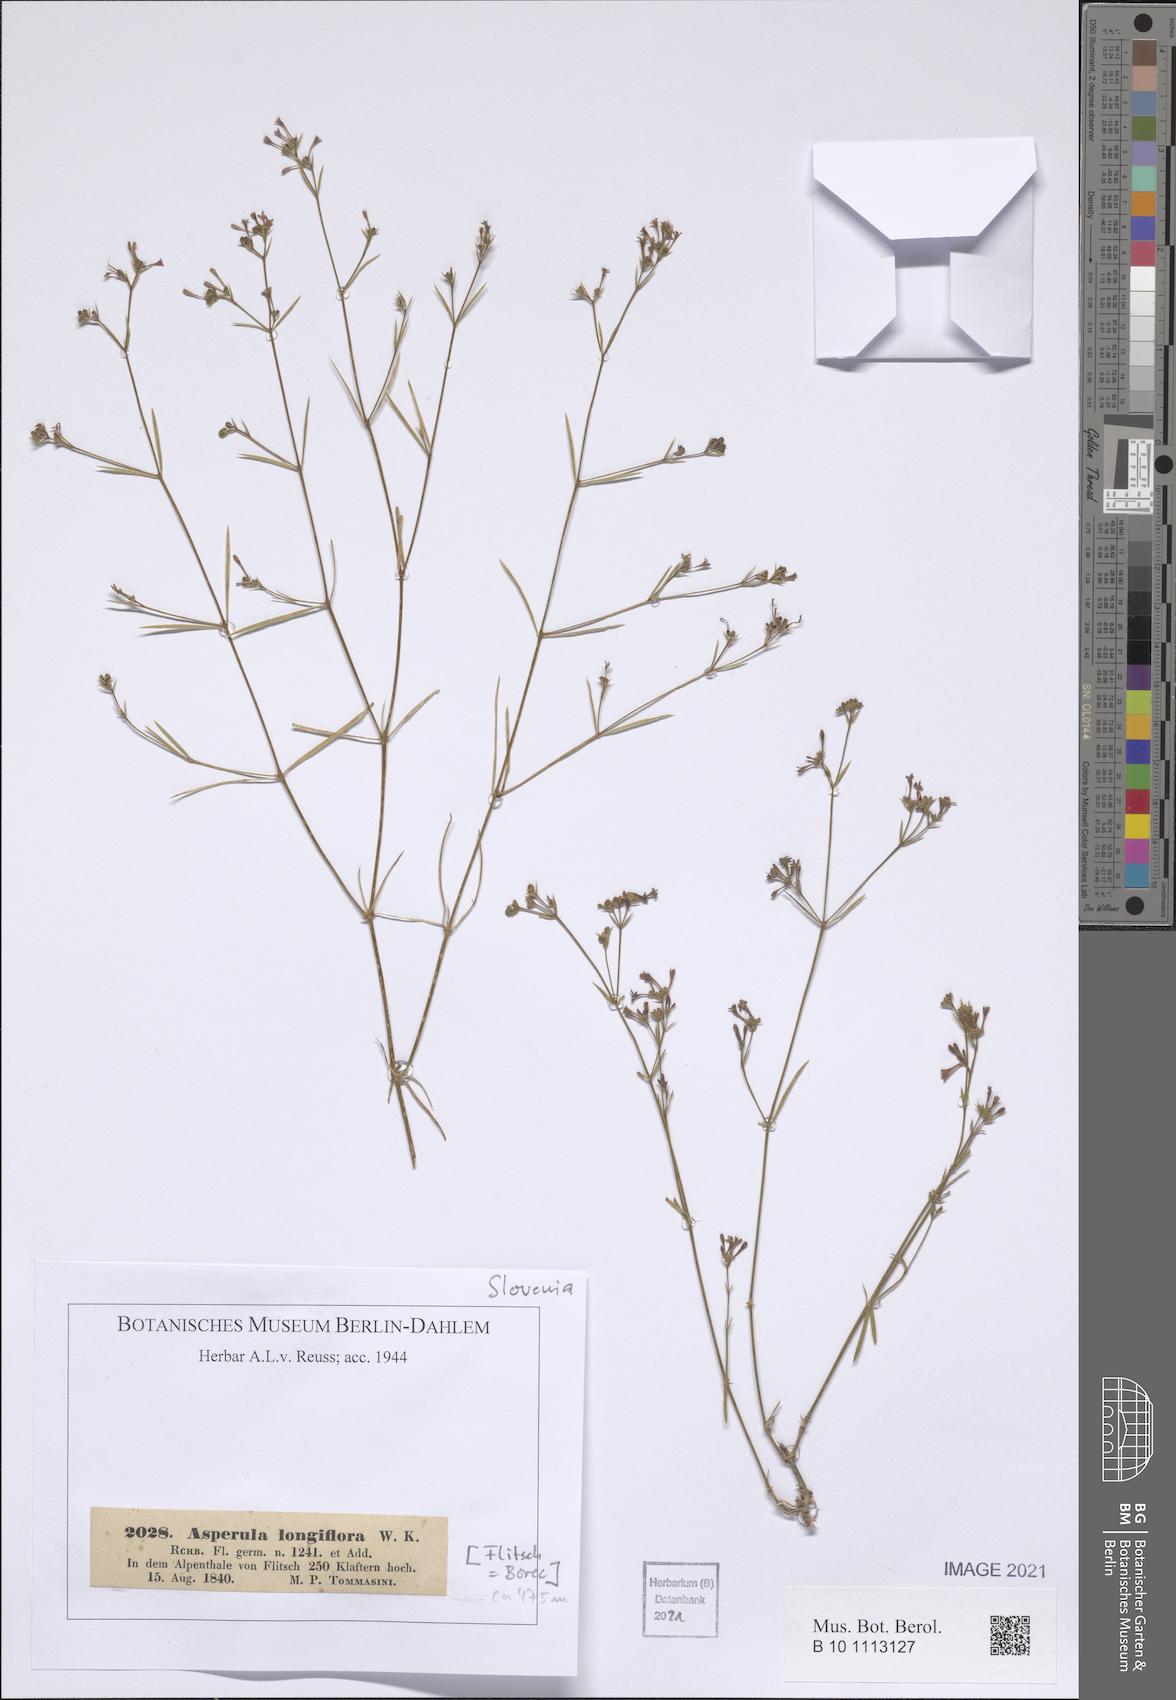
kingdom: Plantae
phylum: Tracheophyta
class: Magnoliopsida
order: Gentianales
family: Rubiaceae
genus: Cynanchica
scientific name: Cynanchica aristata
